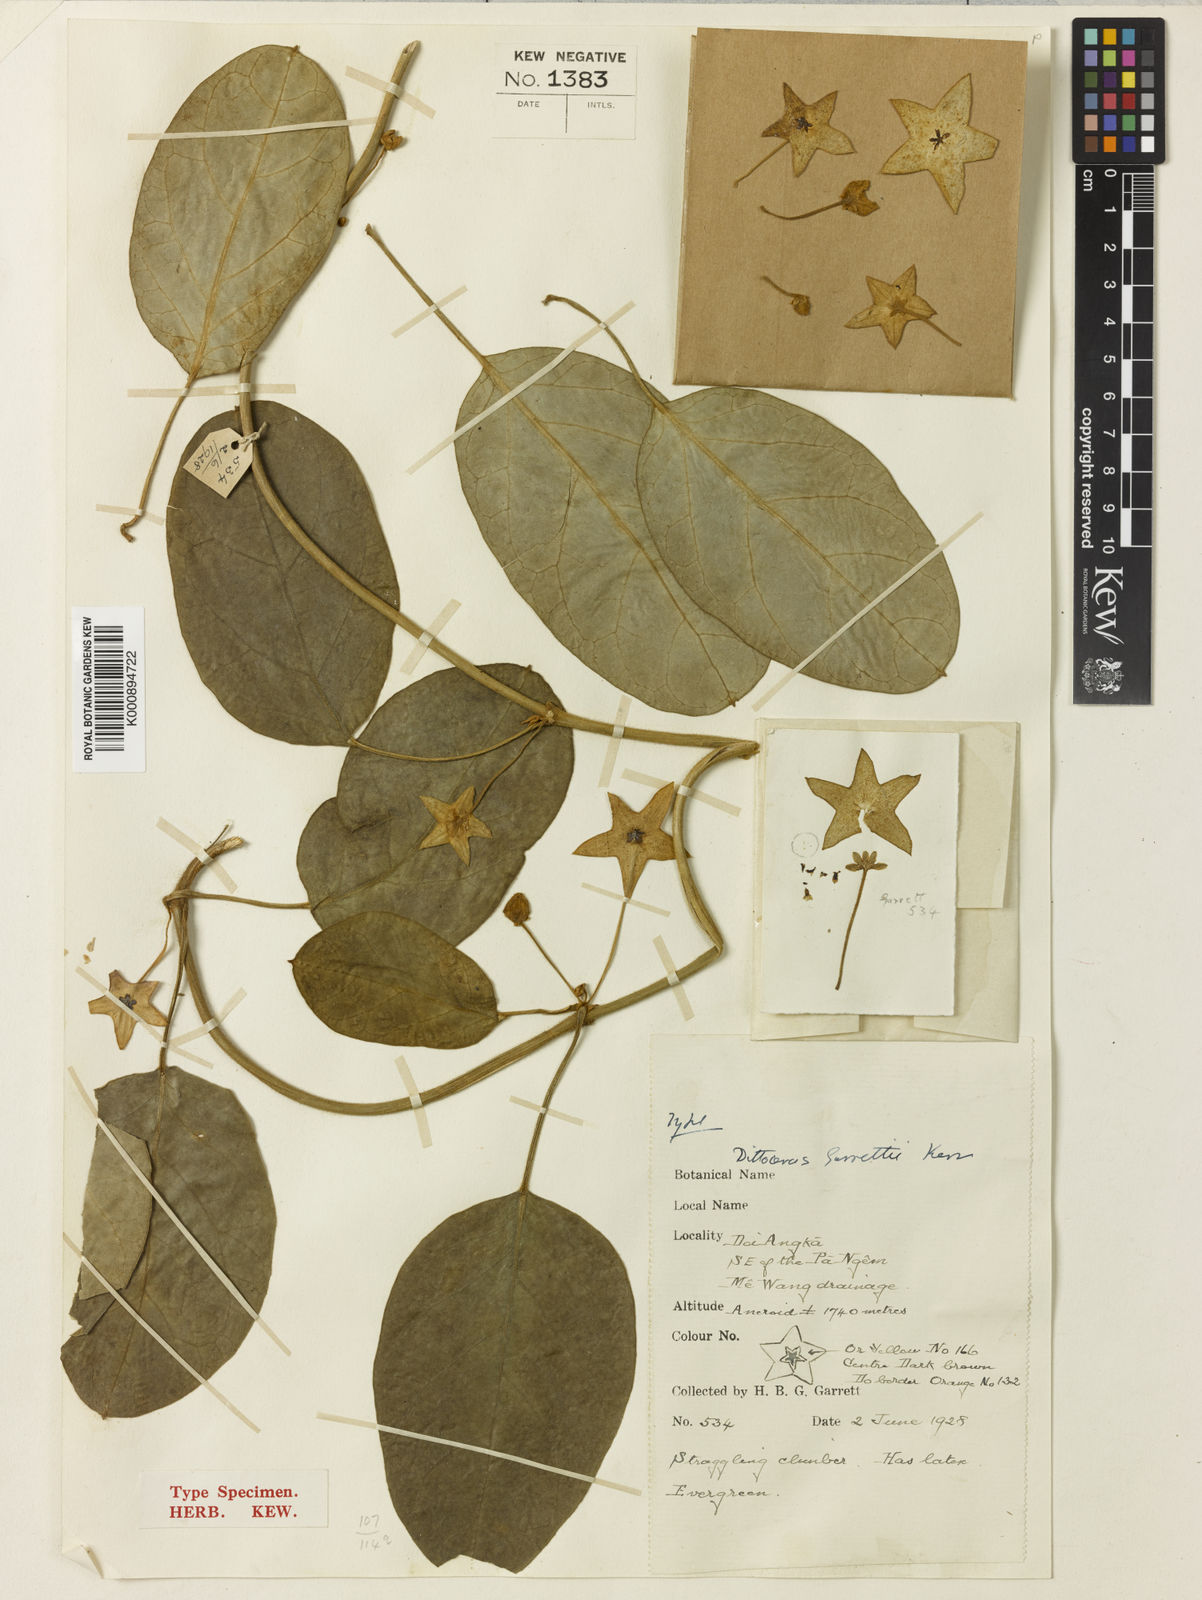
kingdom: Plantae
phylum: Tracheophyta
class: Magnoliopsida
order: Gentianales
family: Apocynaceae
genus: Heterostemma
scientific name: Heterostemma garrettii
